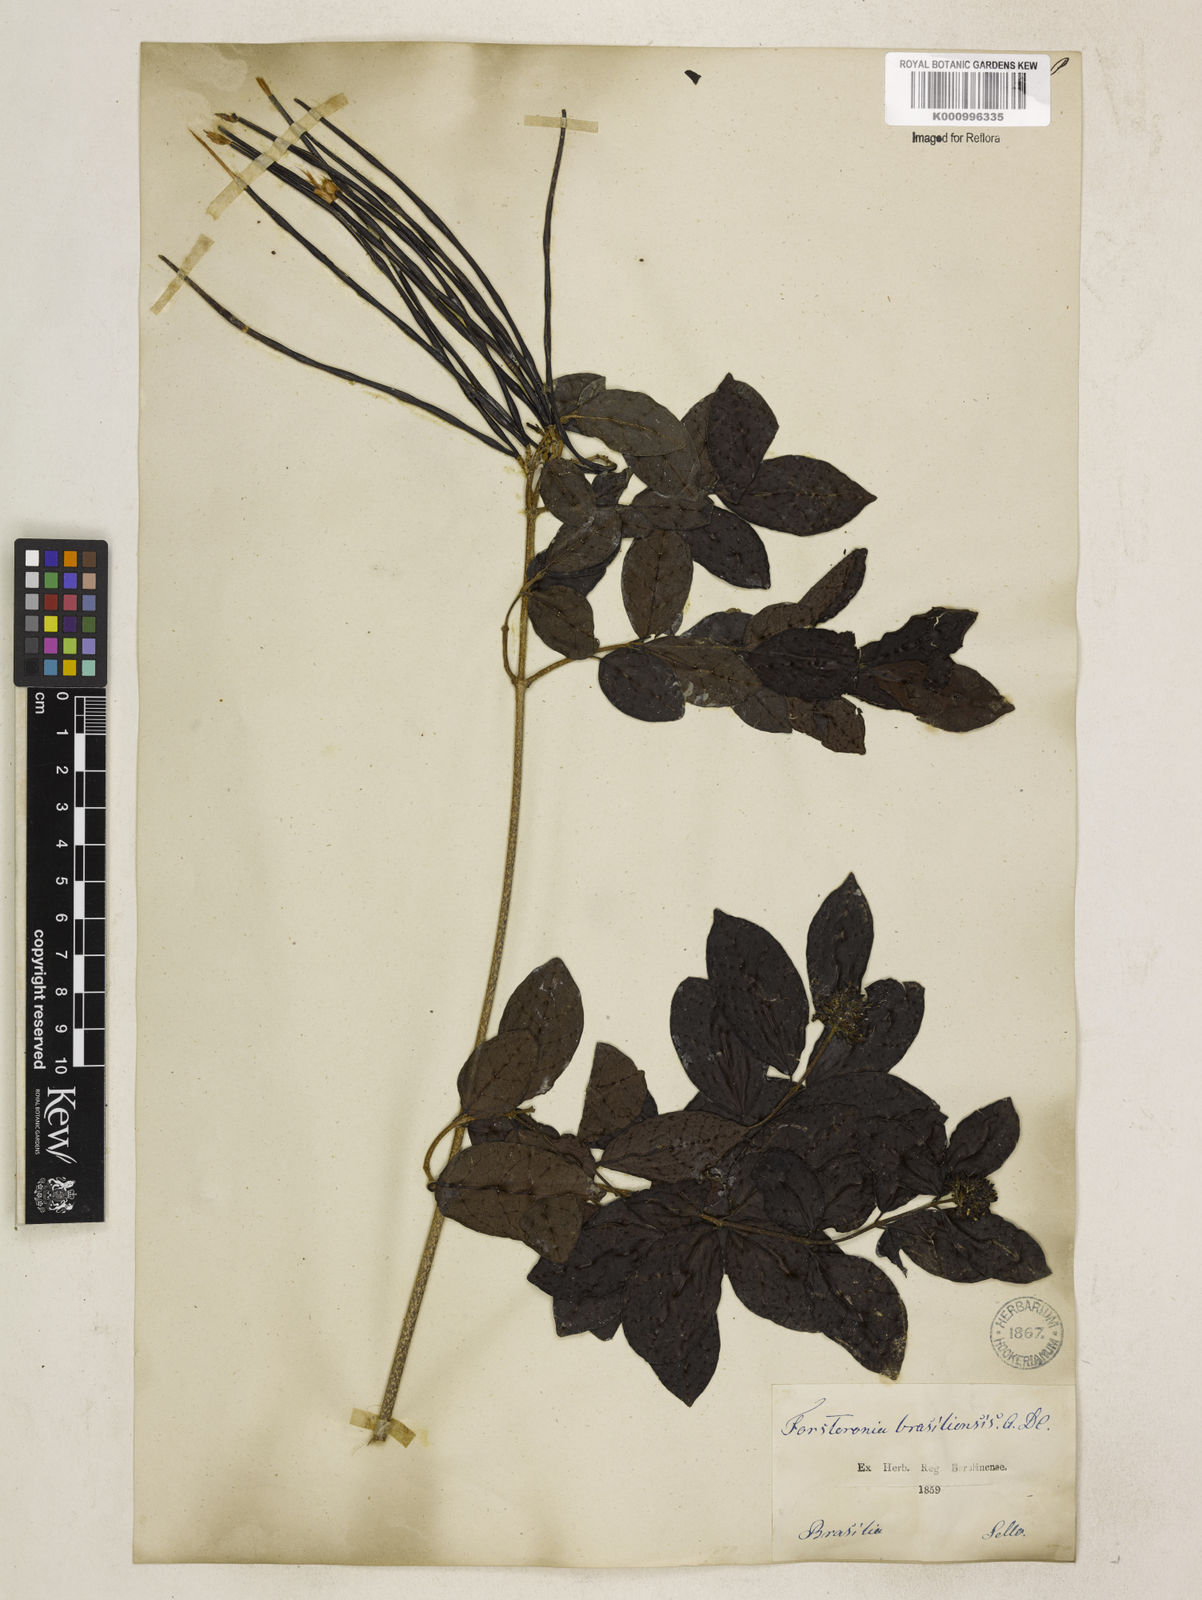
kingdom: Plantae
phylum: Tracheophyta
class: Magnoliopsida
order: Gentianales
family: Apocynaceae
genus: Forsteronia
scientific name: Forsteronia leptocarpa
